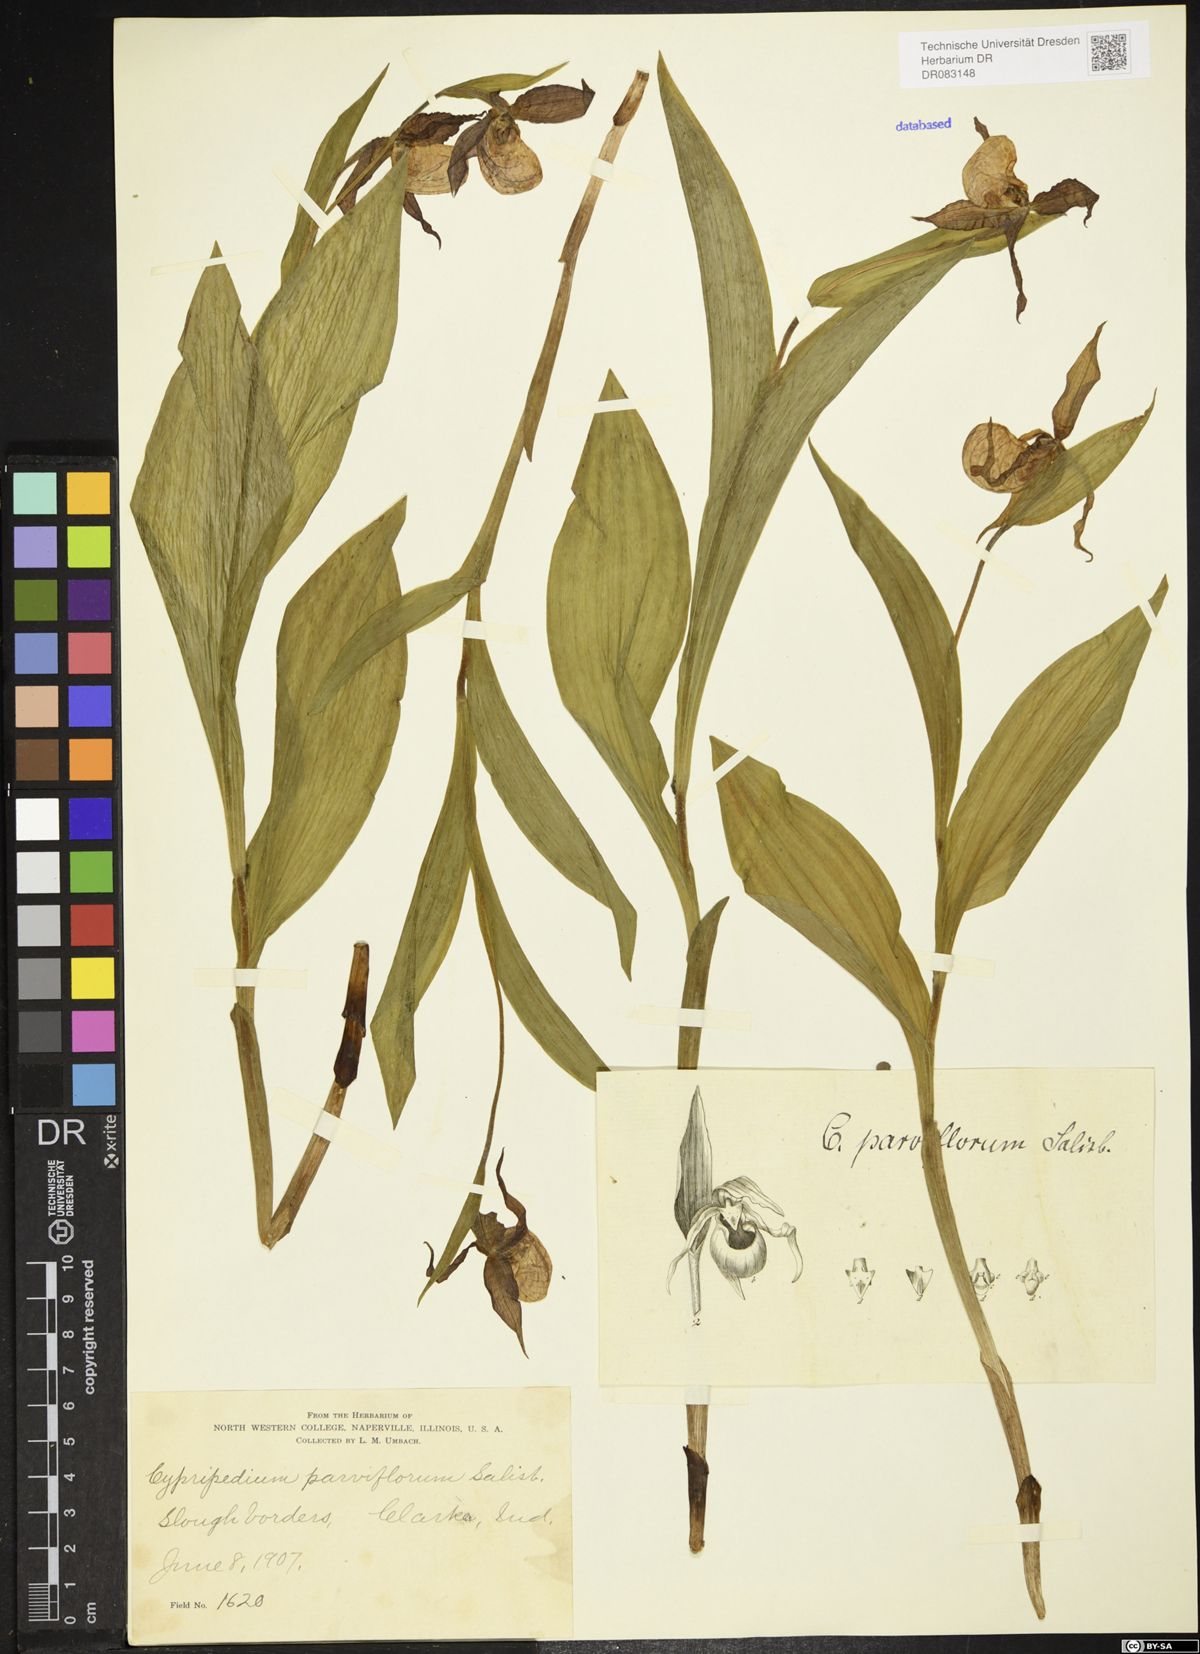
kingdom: Plantae
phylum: Tracheophyta
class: Liliopsida
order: Asparagales
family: Orchidaceae
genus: Cypripedium
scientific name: Cypripedium parviflorum
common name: American yellow lady's-slipper
